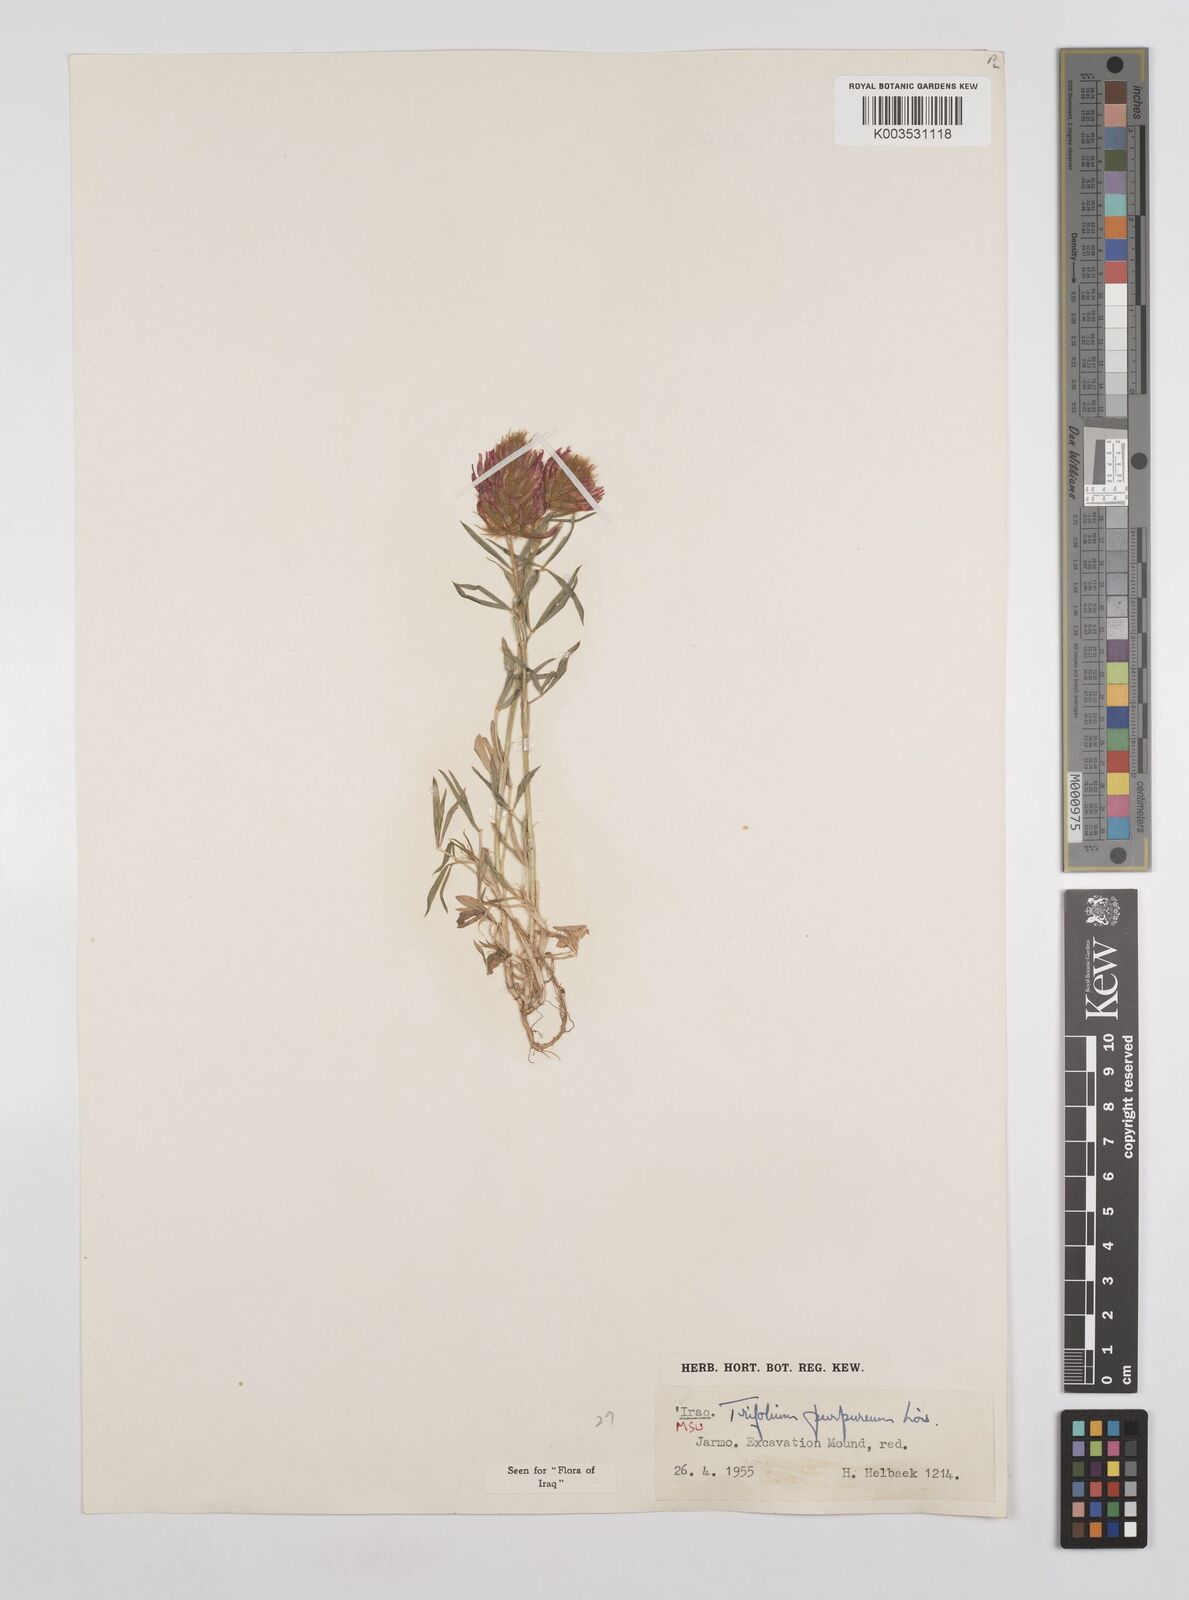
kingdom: Plantae
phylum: Tracheophyta
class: Magnoliopsida
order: Fabales
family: Fabaceae
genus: Trifolium
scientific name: Trifolium purpureum
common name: Purple clover
